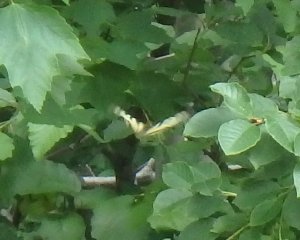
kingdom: Animalia
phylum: Arthropoda
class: Insecta
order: Lepidoptera
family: Papilionidae
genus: Pterourus
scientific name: Pterourus canadensis
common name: Canadian Tiger Swallowtail
